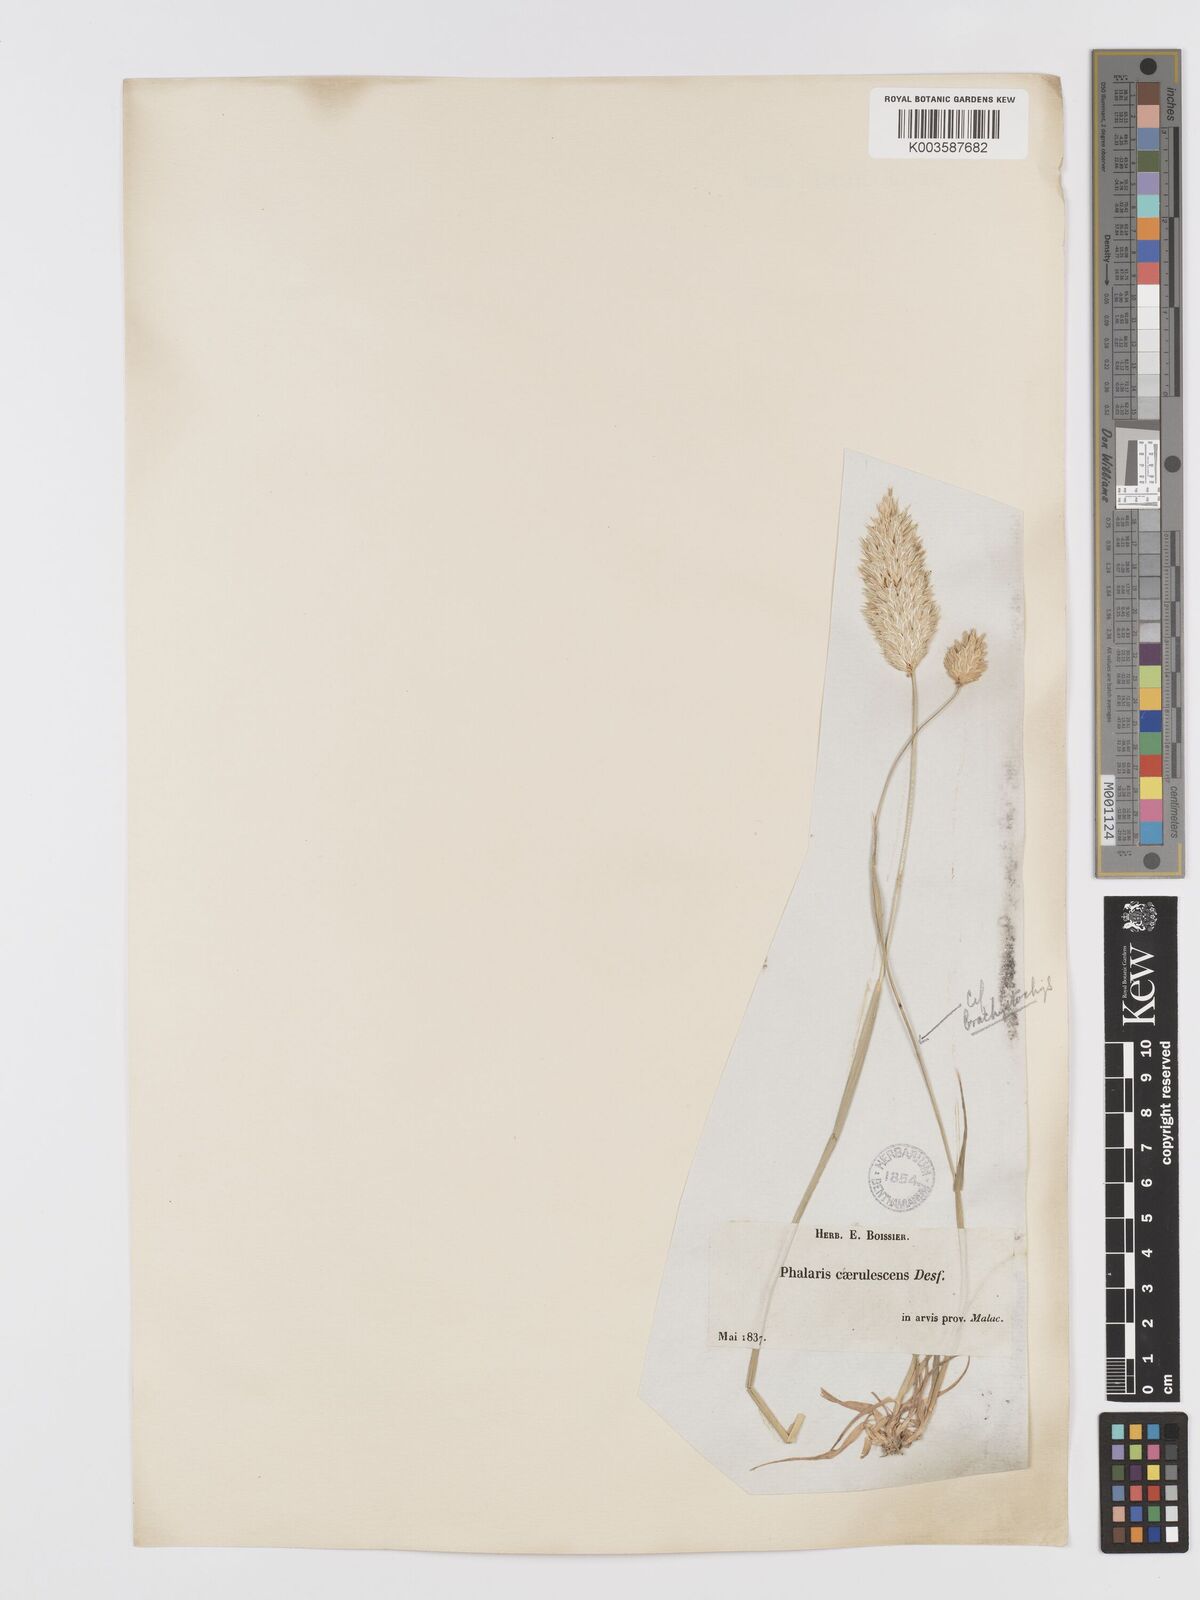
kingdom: Plantae
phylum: Tracheophyta
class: Liliopsida
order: Poales
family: Poaceae
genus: Phalaris
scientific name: Phalaris coerulescens
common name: Sunolgrass
